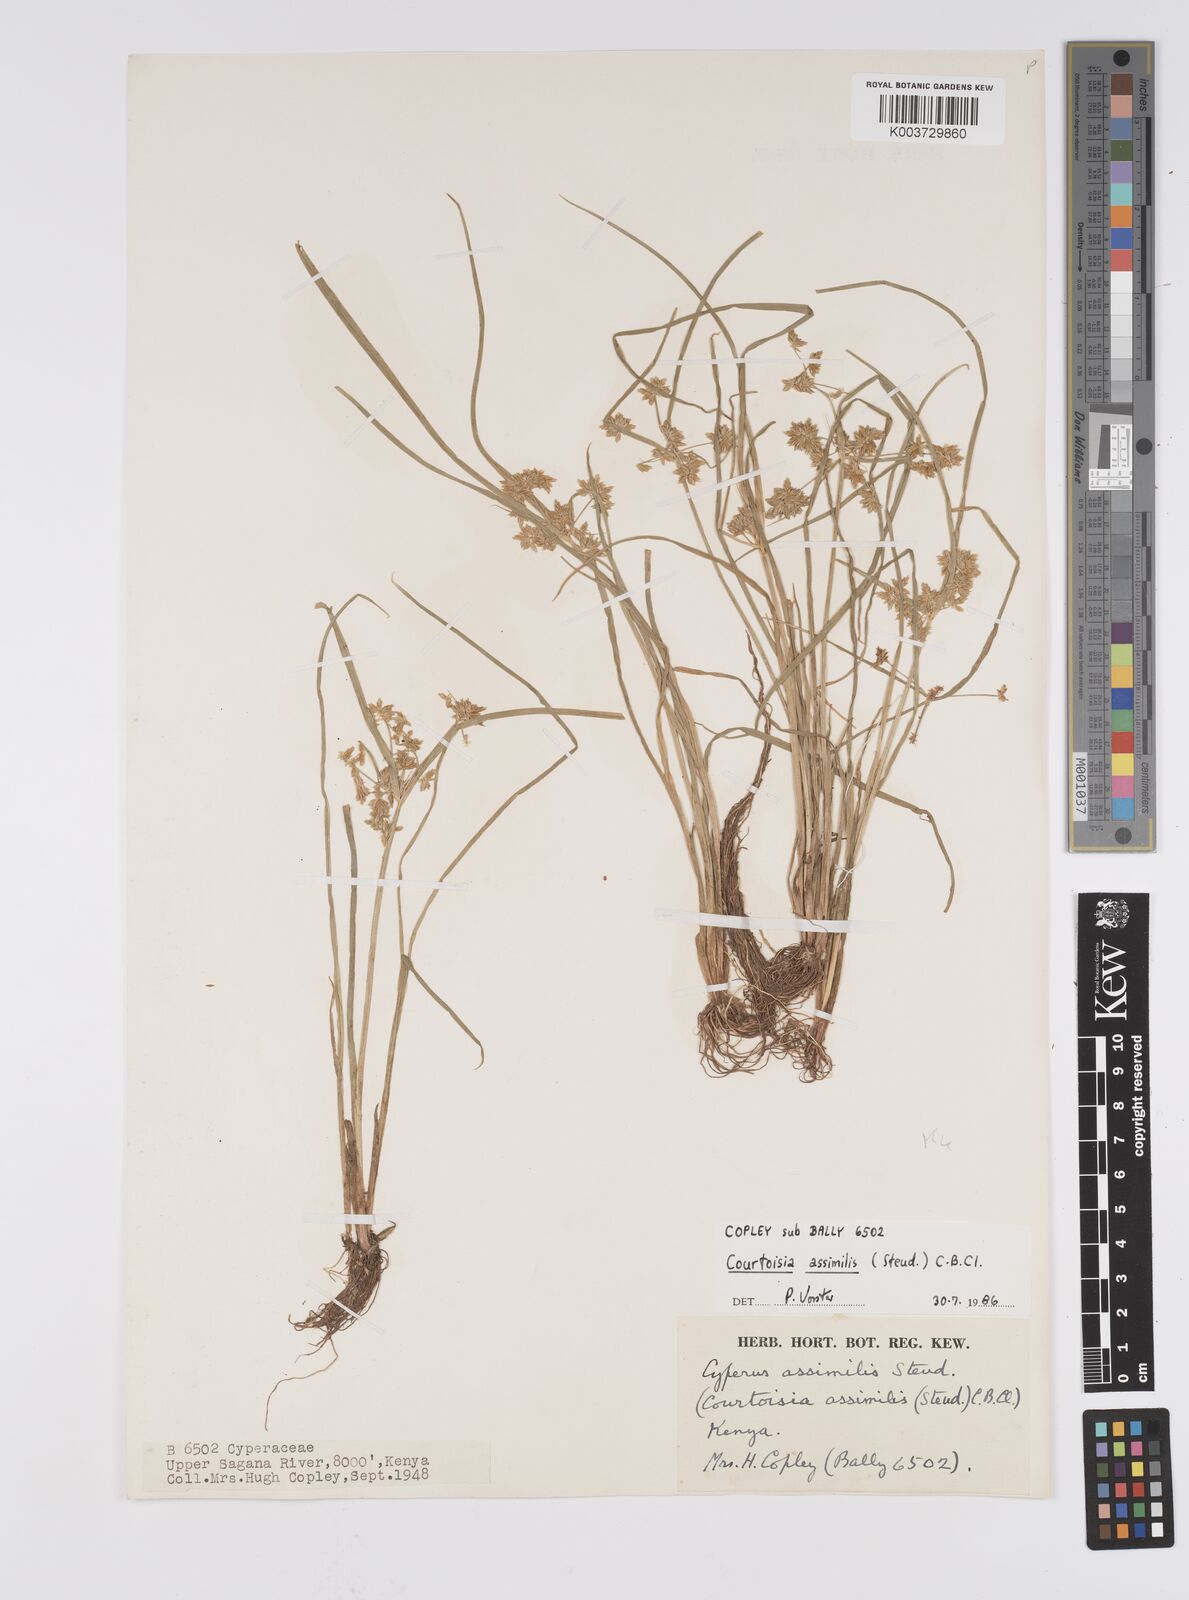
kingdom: Plantae
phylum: Tracheophyta
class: Liliopsida
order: Poales
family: Cyperaceae
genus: Cyperus
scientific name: Cyperus assimilis
